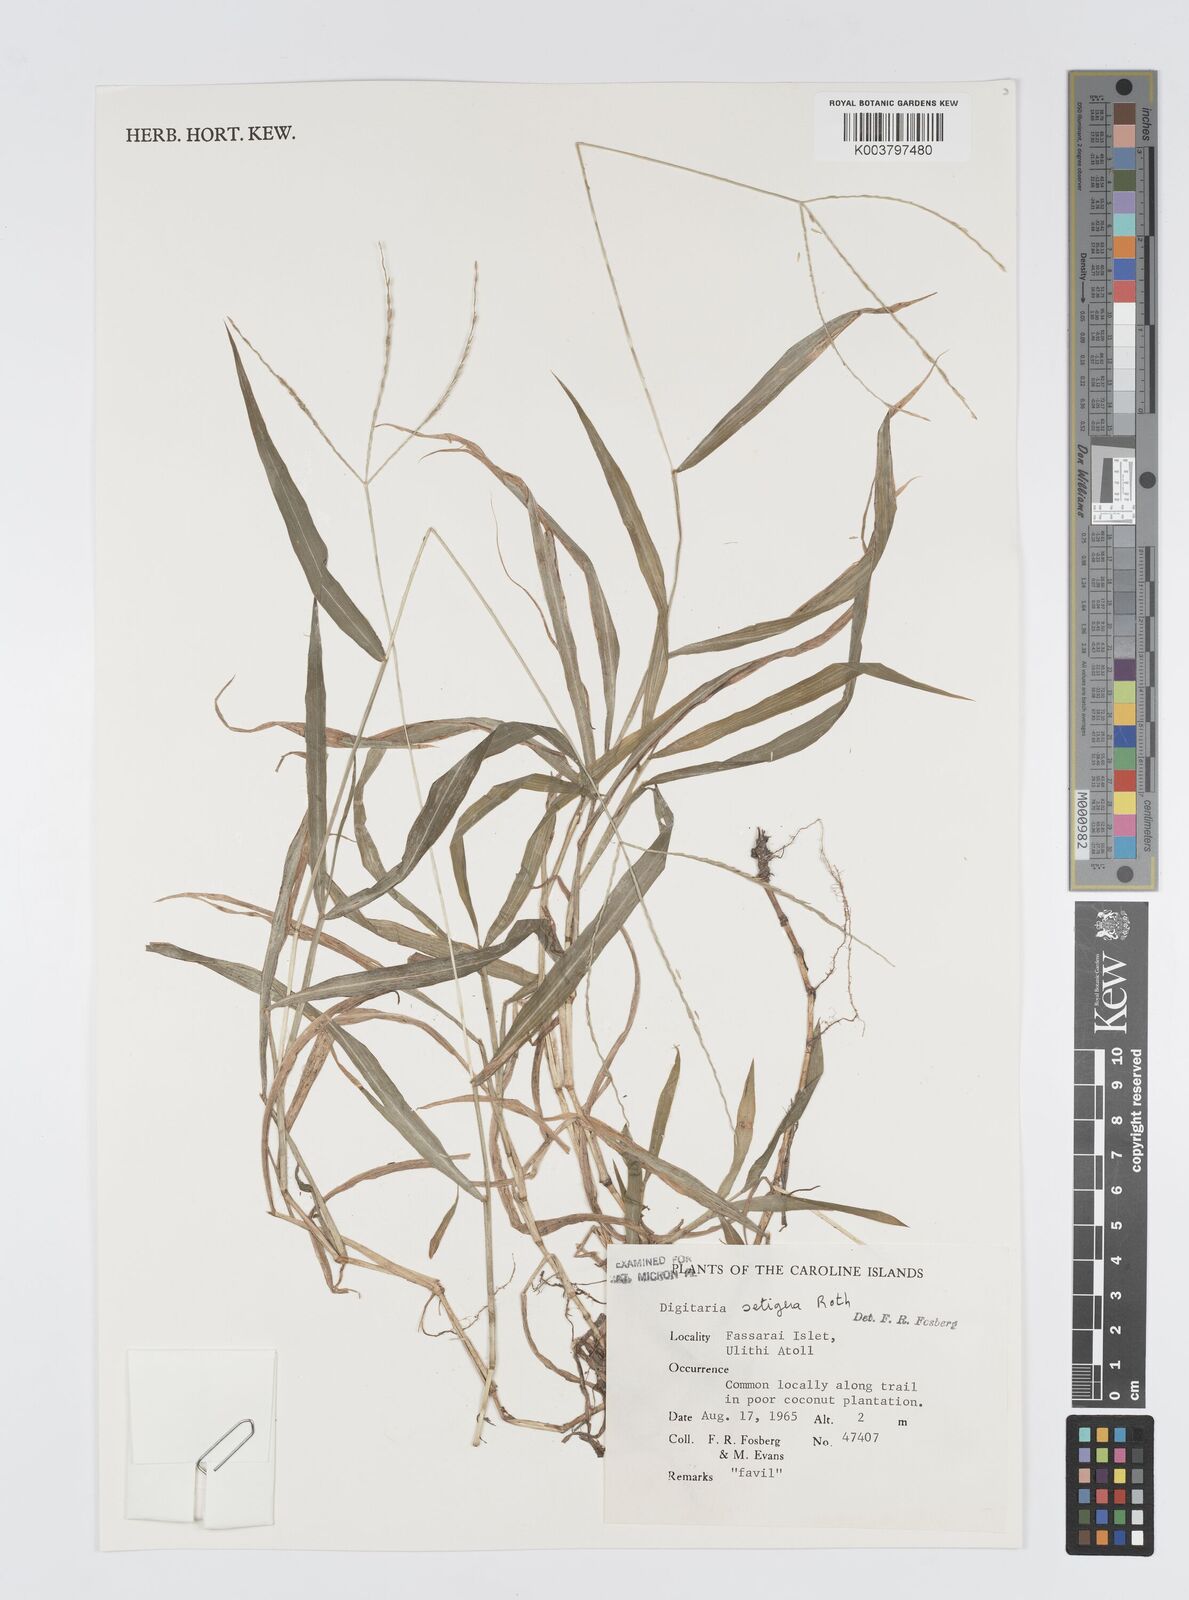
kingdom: Plantae
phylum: Tracheophyta
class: Liliopsida
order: Poales
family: Poaceae
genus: Digitaria
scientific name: Digitaria setigera
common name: East indian crabgrass
